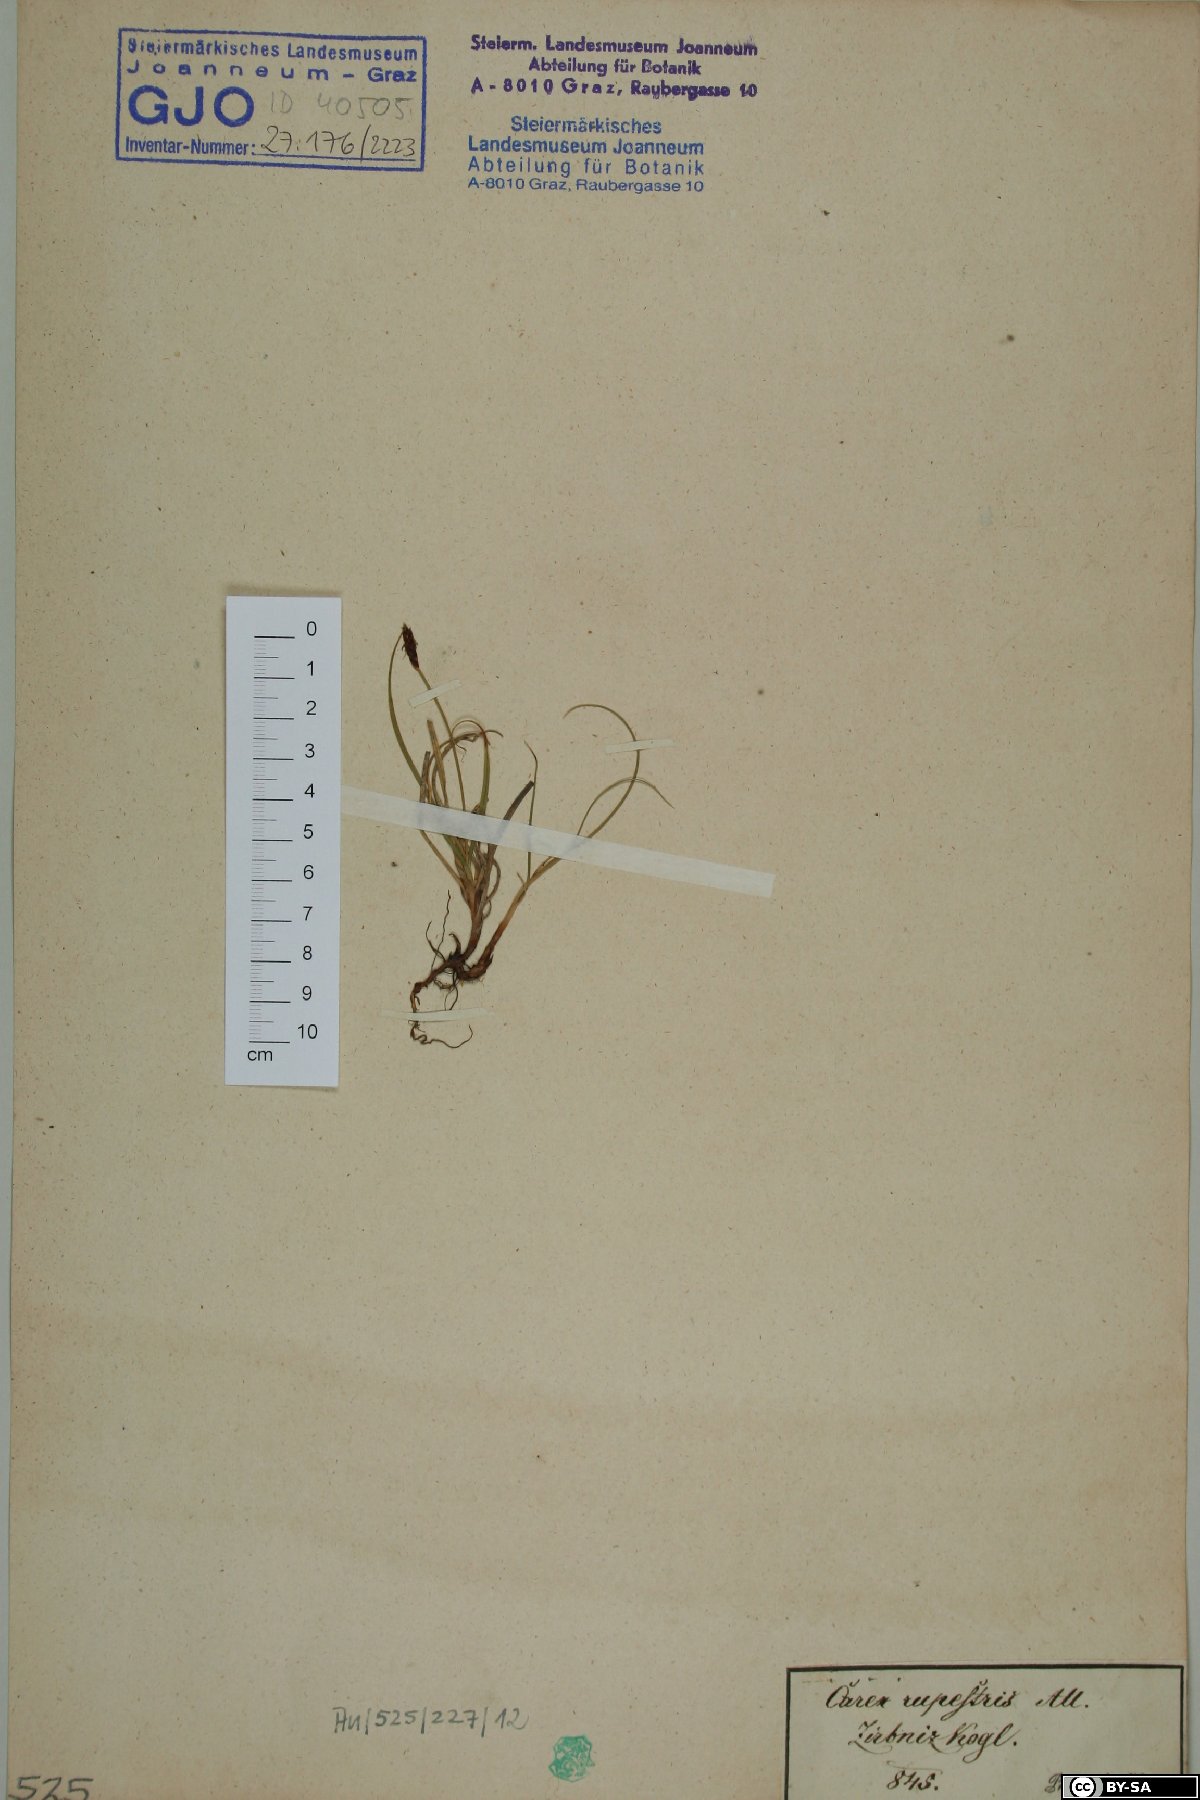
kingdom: Plantae
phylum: Tracheophyta
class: Liliopsida
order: Poales
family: Cyperaceae
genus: Carex
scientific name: Carex rupestris
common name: Rock sedge
